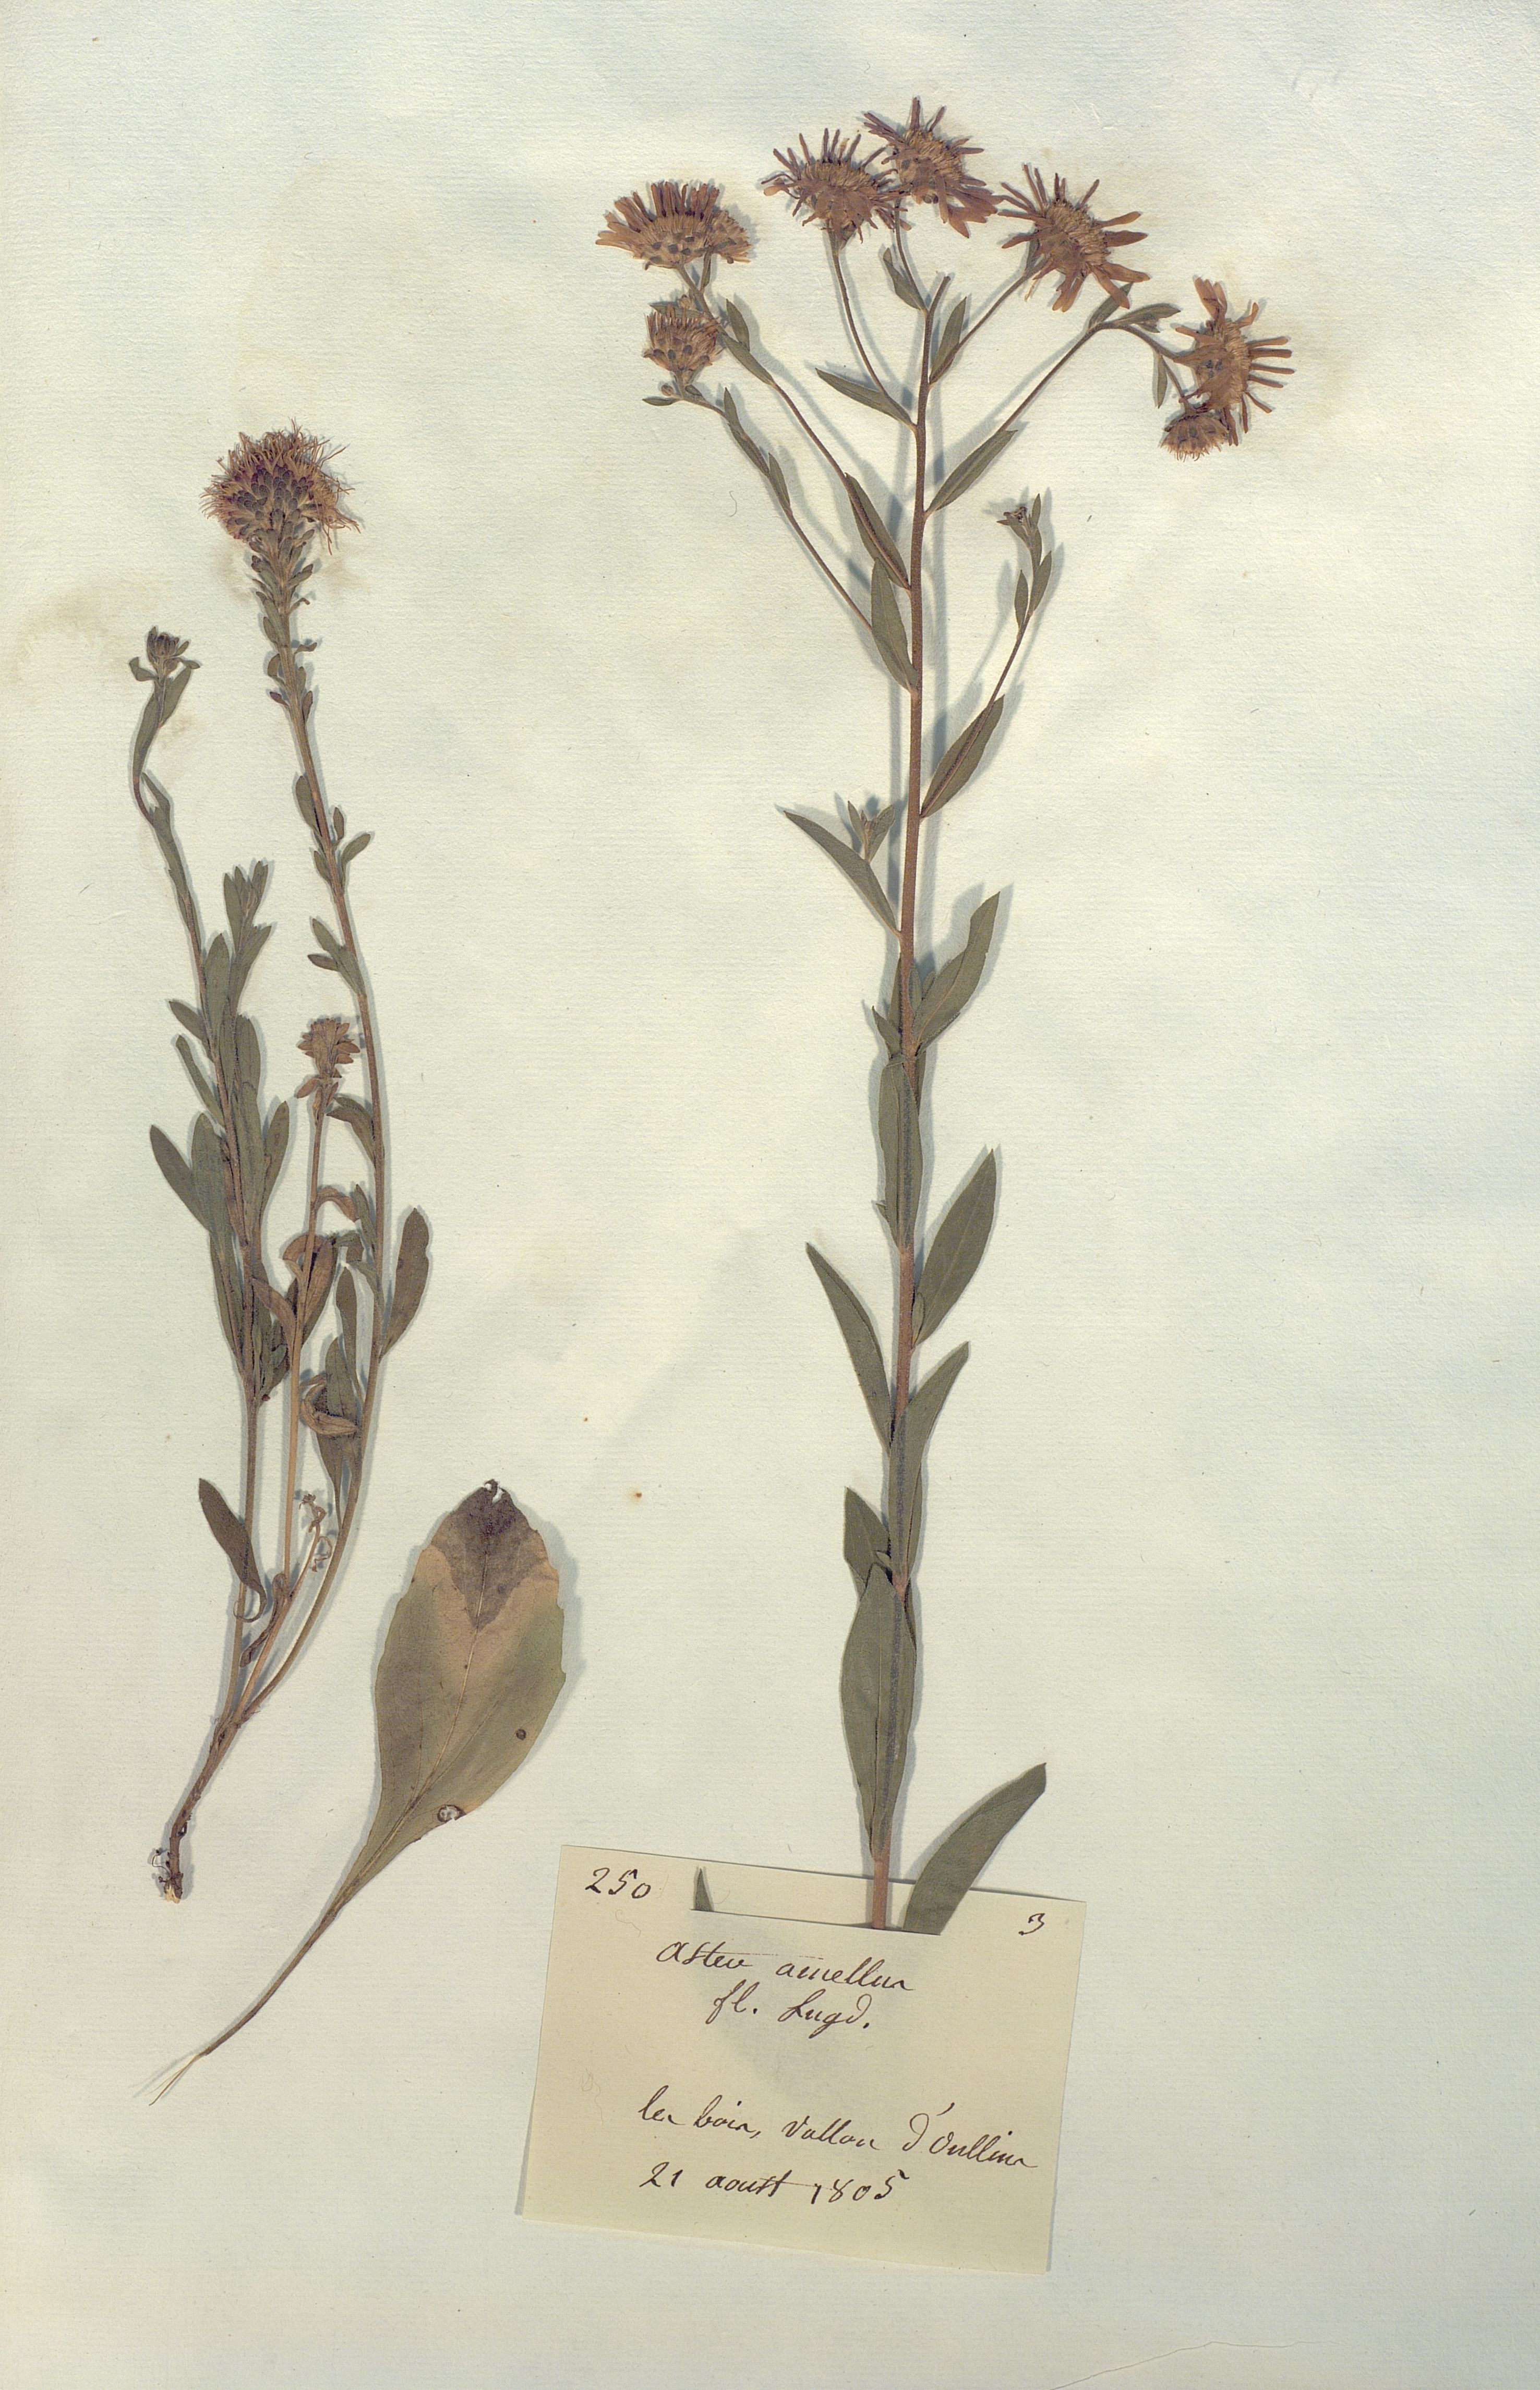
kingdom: Plantae
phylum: Tracheophyta
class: Magnoliopsida
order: Asterales
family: Asteraceae
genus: Aster
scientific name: Aster amellus
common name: European michaelmas daisy
